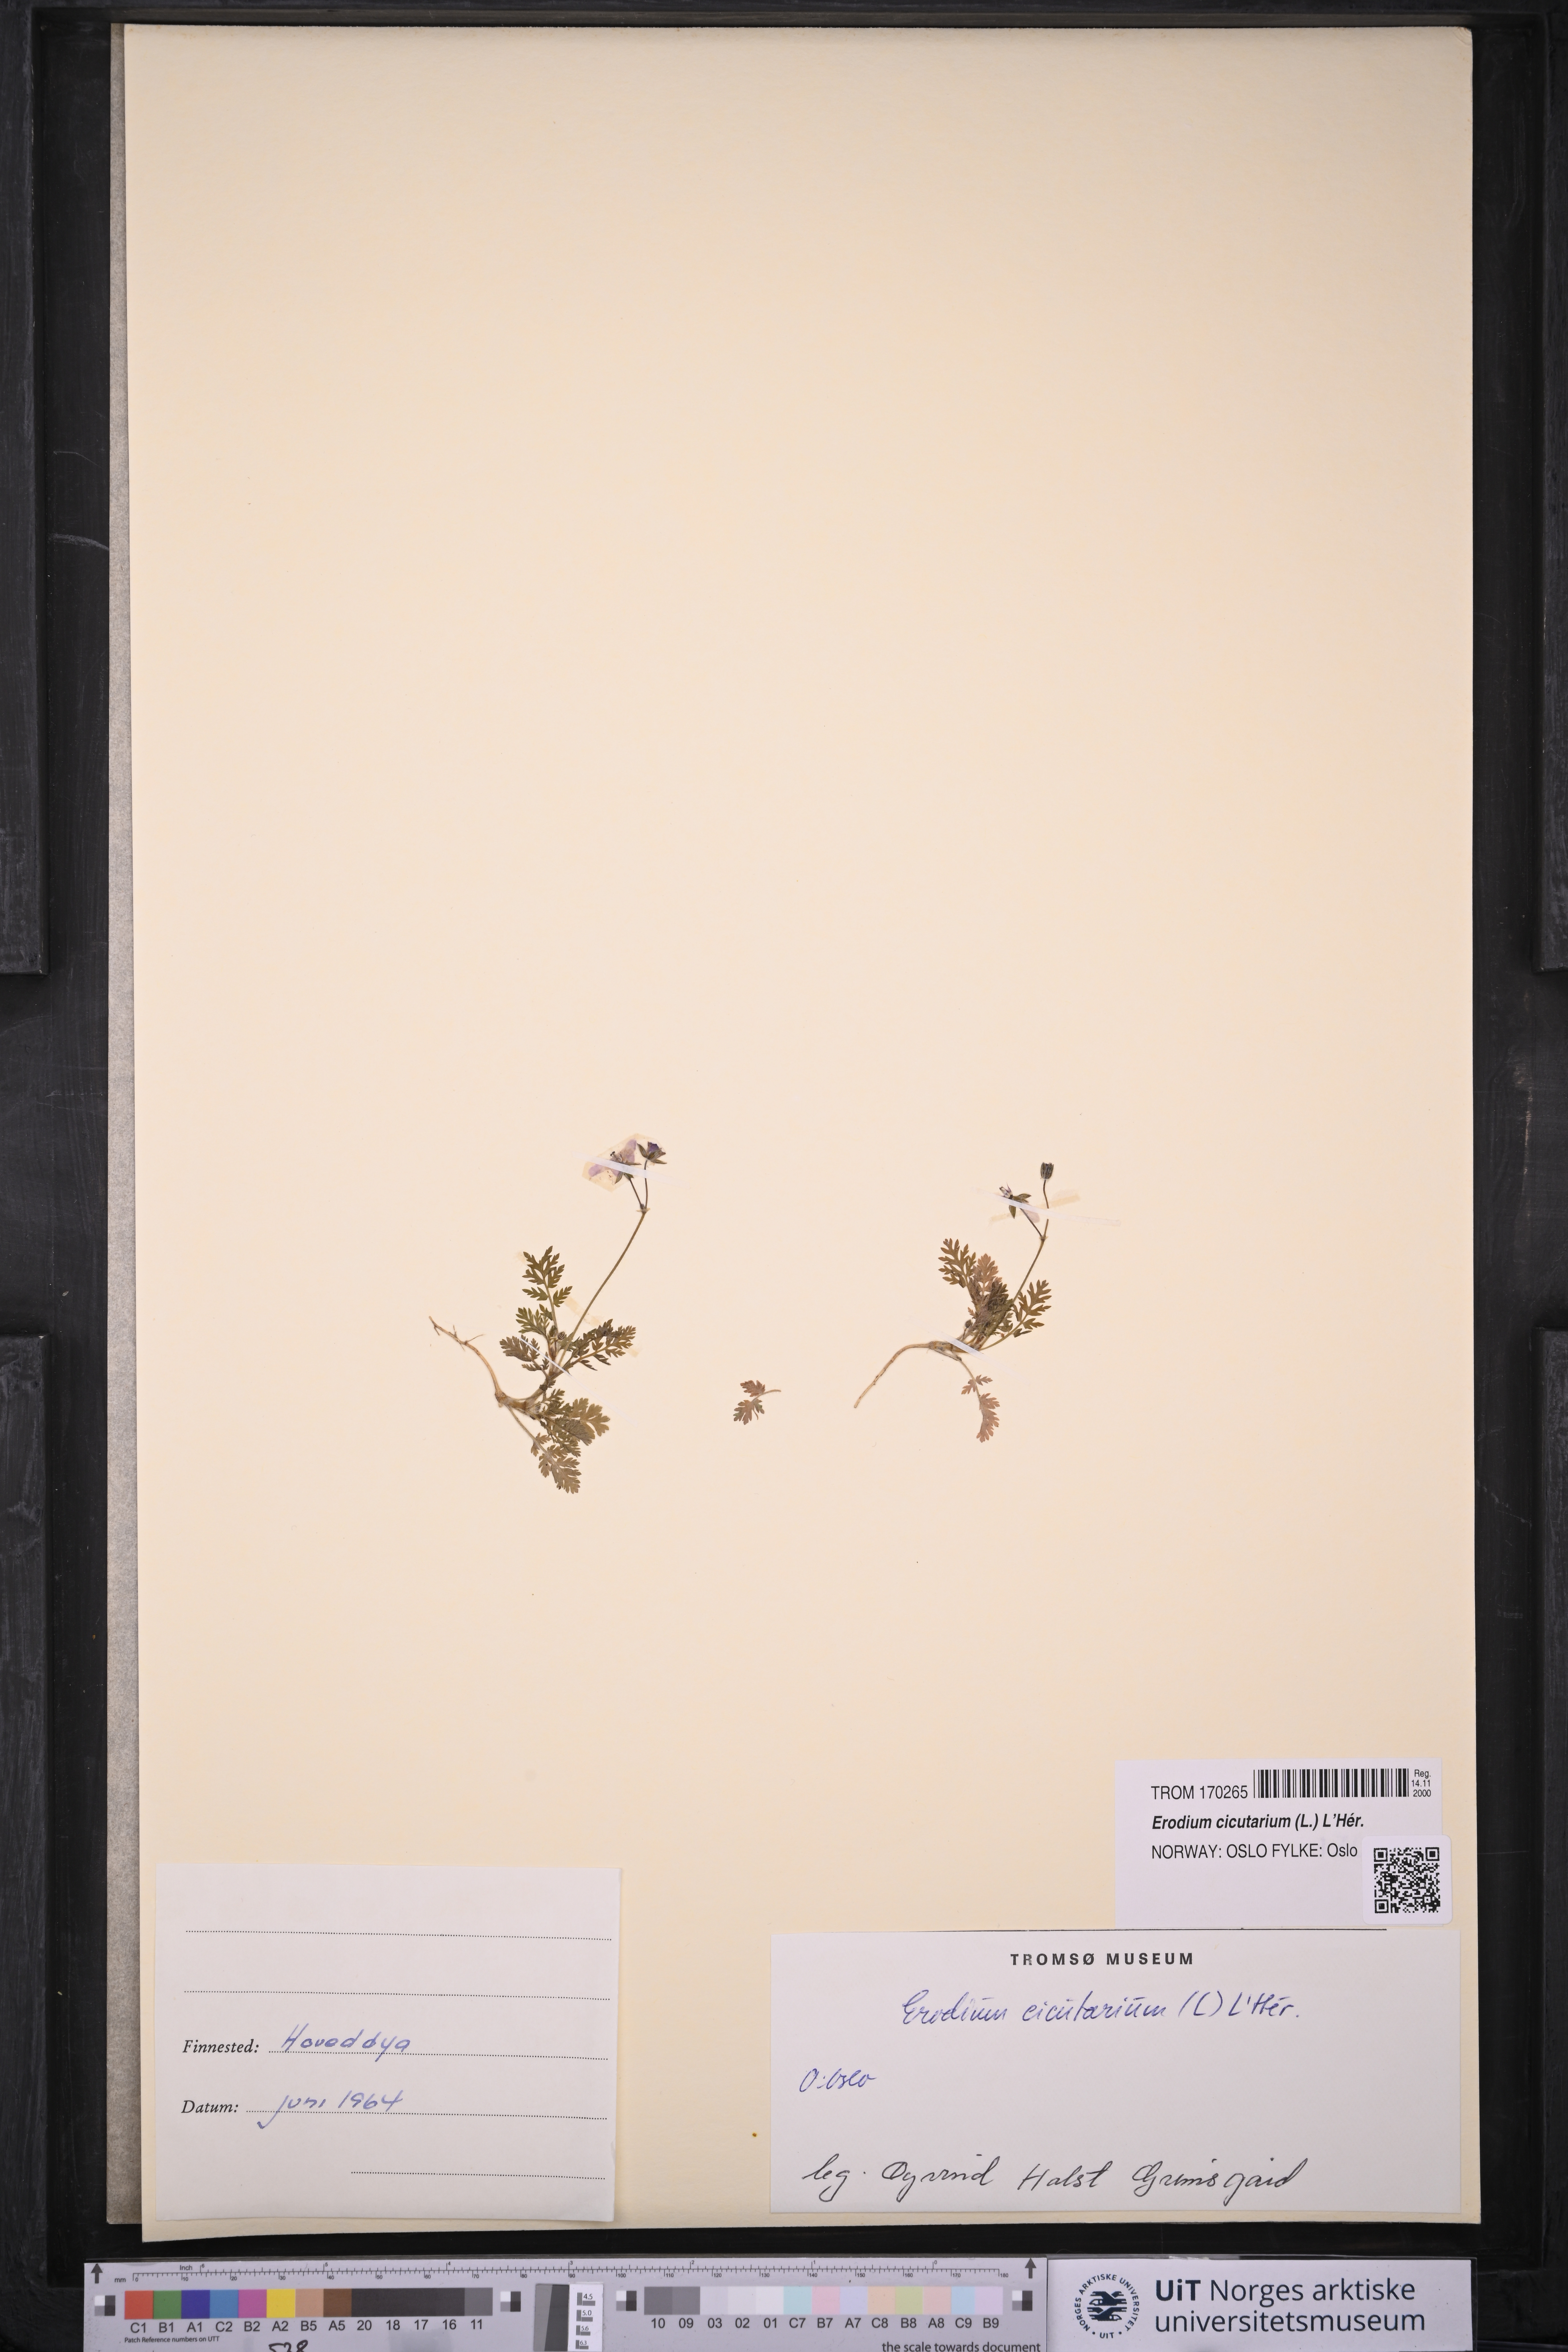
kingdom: Plantae
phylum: Tracheophyta
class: Magnoliopsida
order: Geraniales
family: Geraniaceae
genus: Erodium
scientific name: Erodium cicutarium
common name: Common stork's-bill
